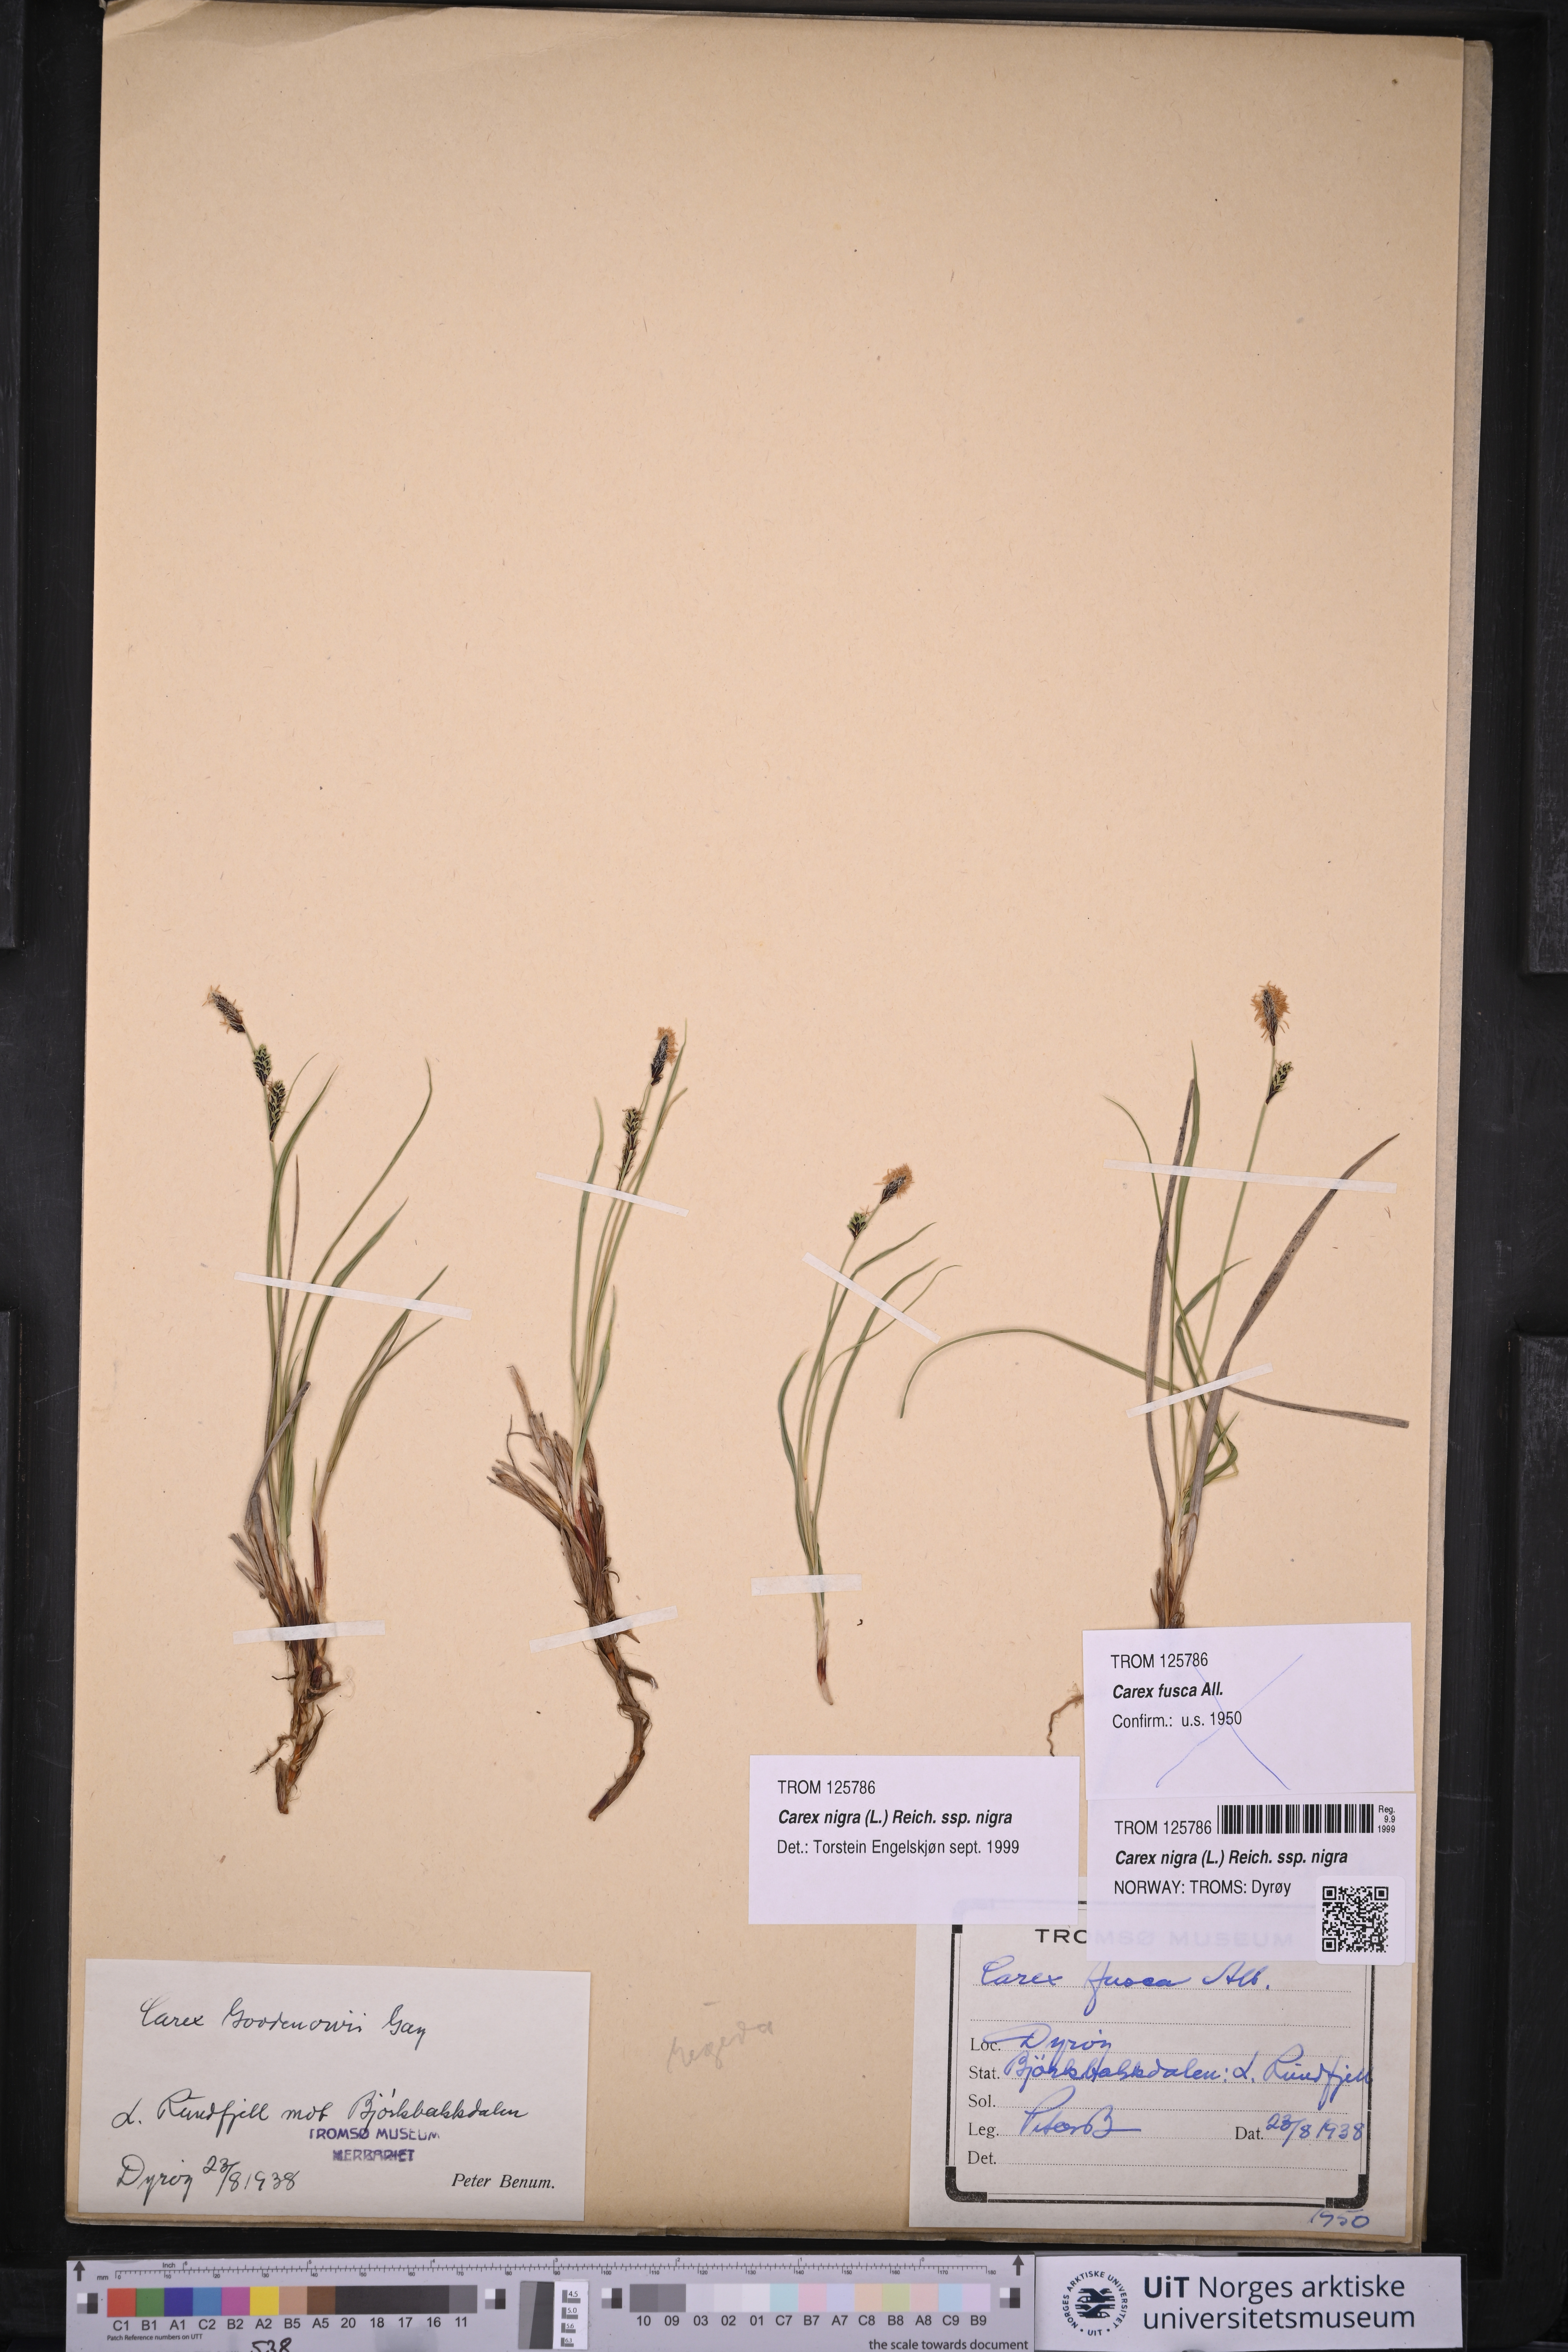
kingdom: Plantae
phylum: Tracheophyta
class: Liliopsida
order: Poales
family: Cyperaceae
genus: Carex
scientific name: Carex nigra
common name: Common sedge
